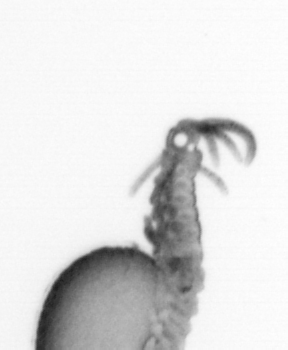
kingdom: Animalia
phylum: Annelida
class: Polychaeta
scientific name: Polychaeta
